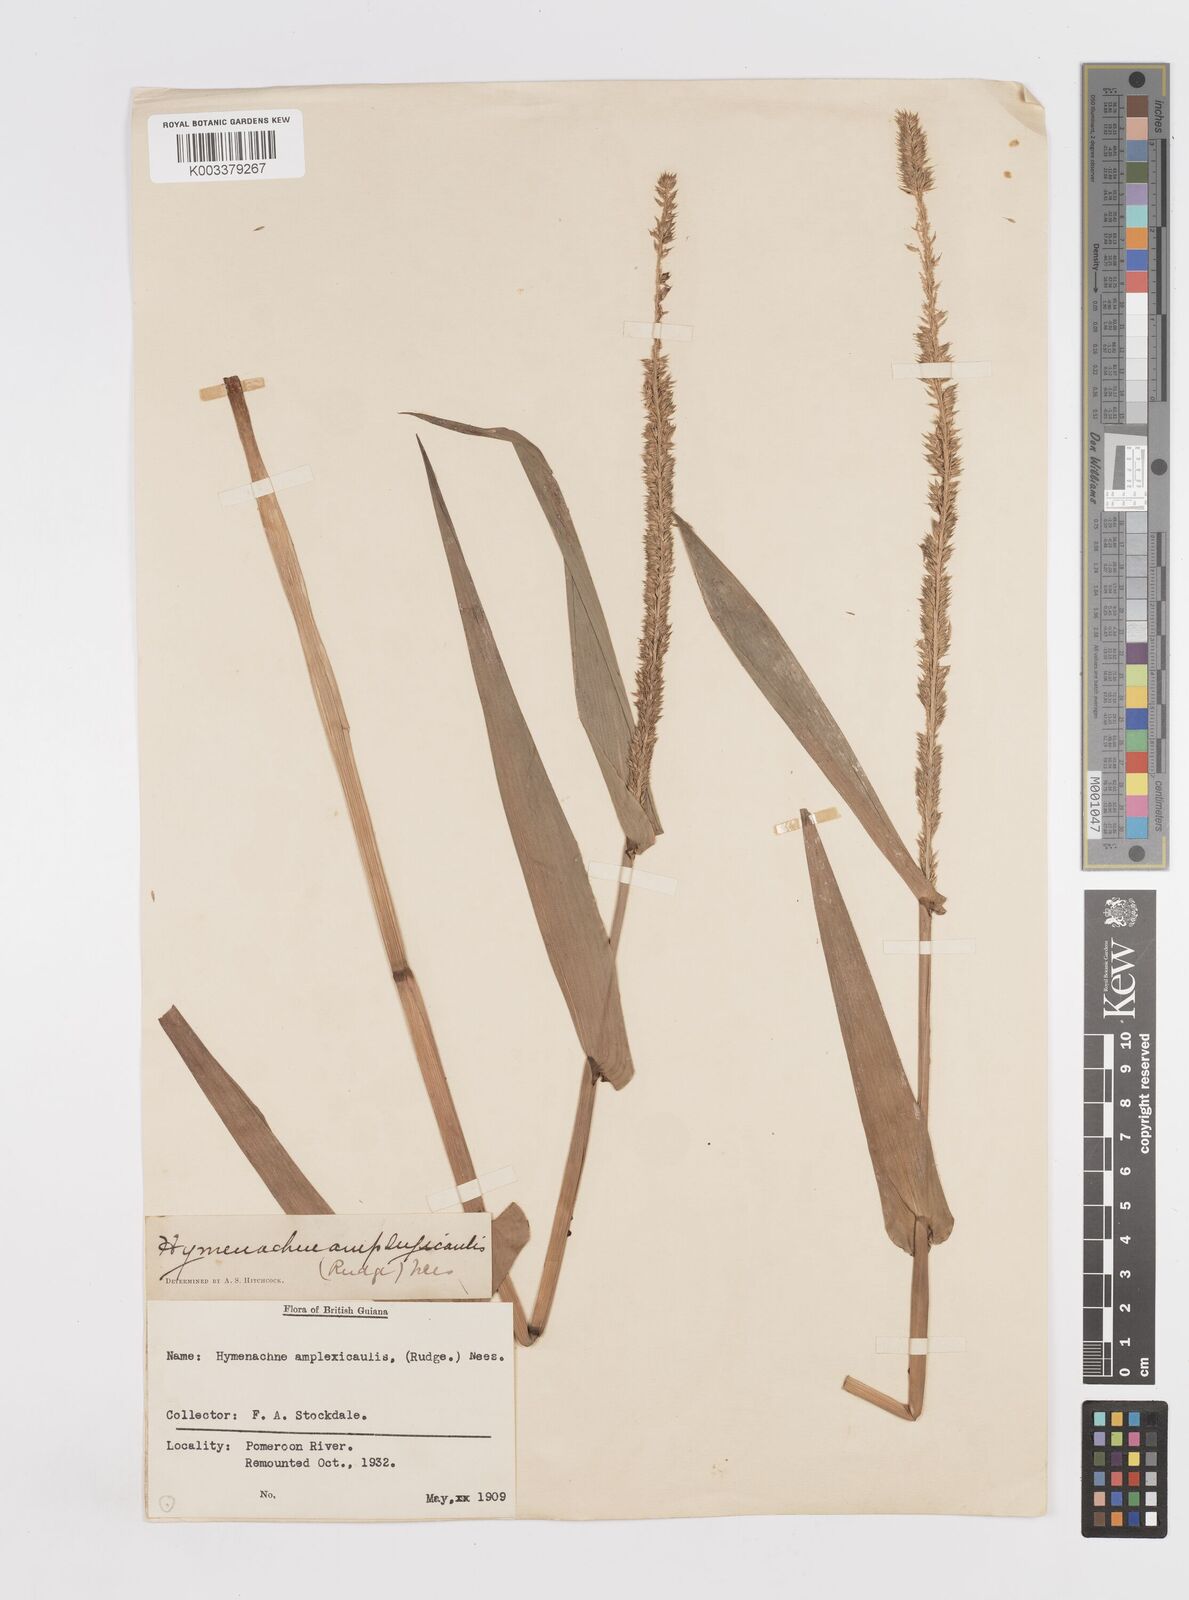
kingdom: Plantae
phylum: Tracheophyta
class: Liliopsida
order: Poales
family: Poaceae
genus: Hymenachne
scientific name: Hymenachne amplexicaulis
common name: Olive hymenachne
